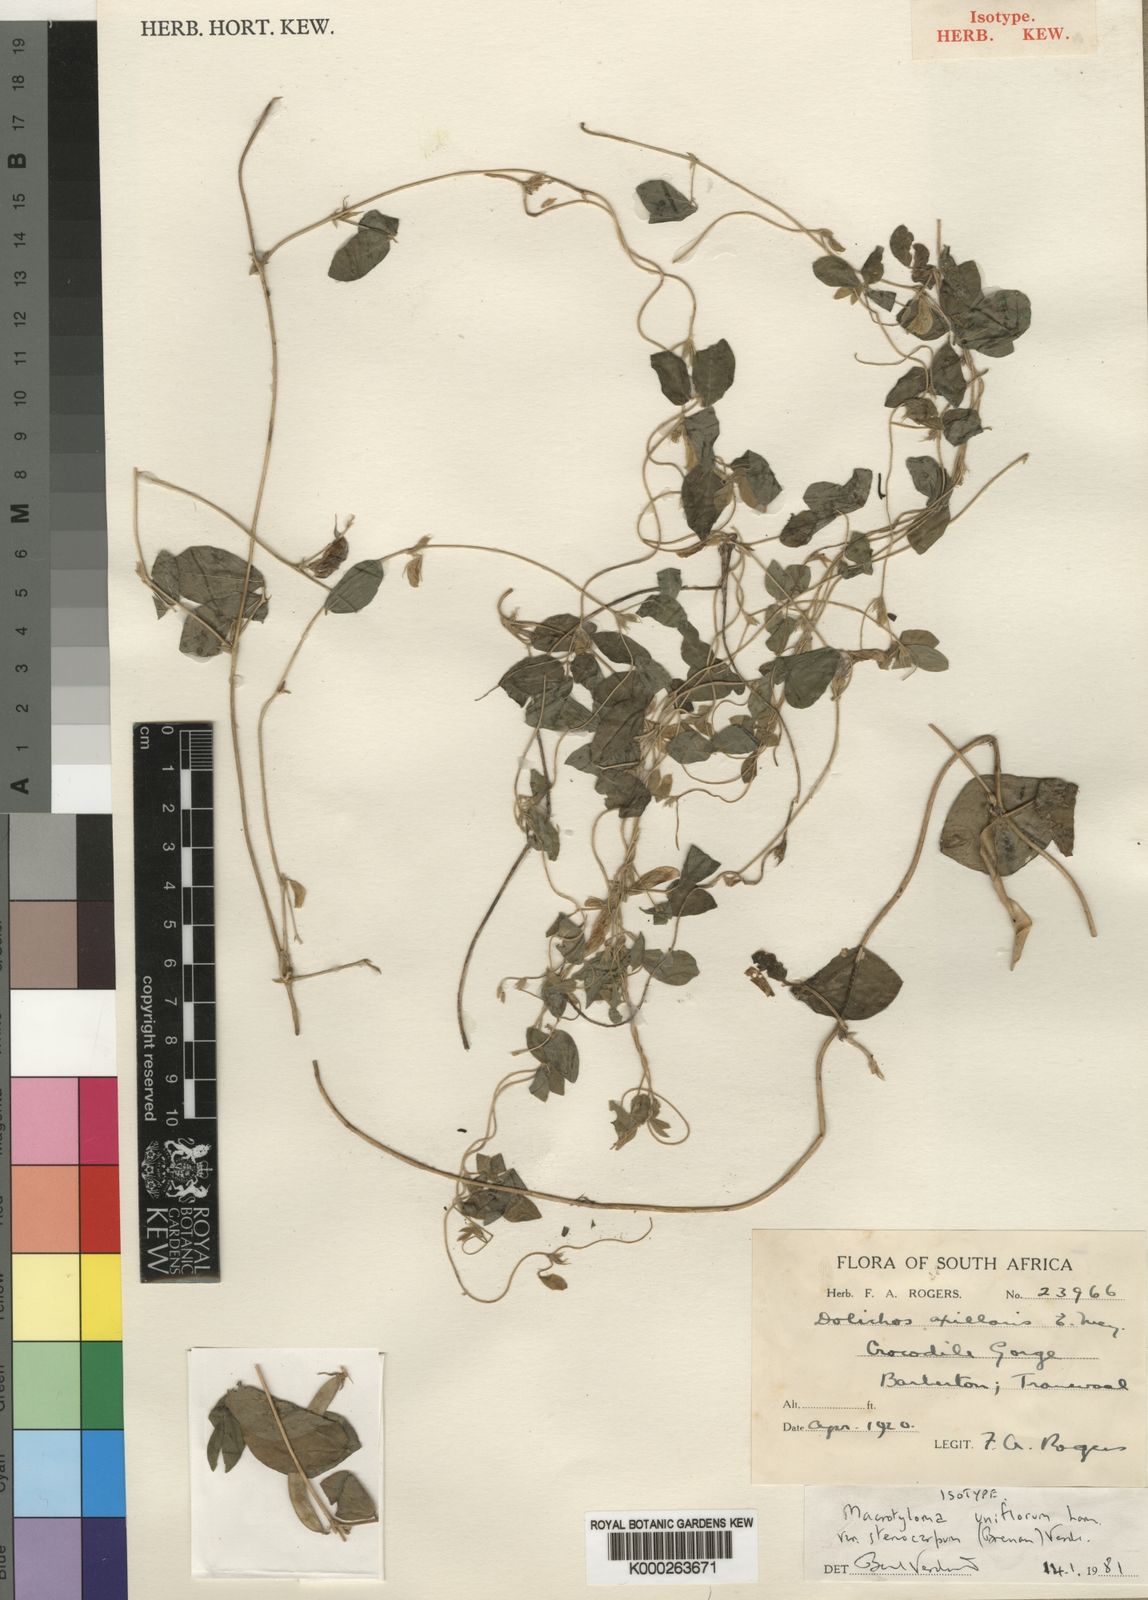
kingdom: Plantae
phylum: Tracheophyta
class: Magnoliopsida
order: Fabales
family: Fabaceae
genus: Macrotyloma
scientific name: Macrotyloma uniflorum
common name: Horse gram
